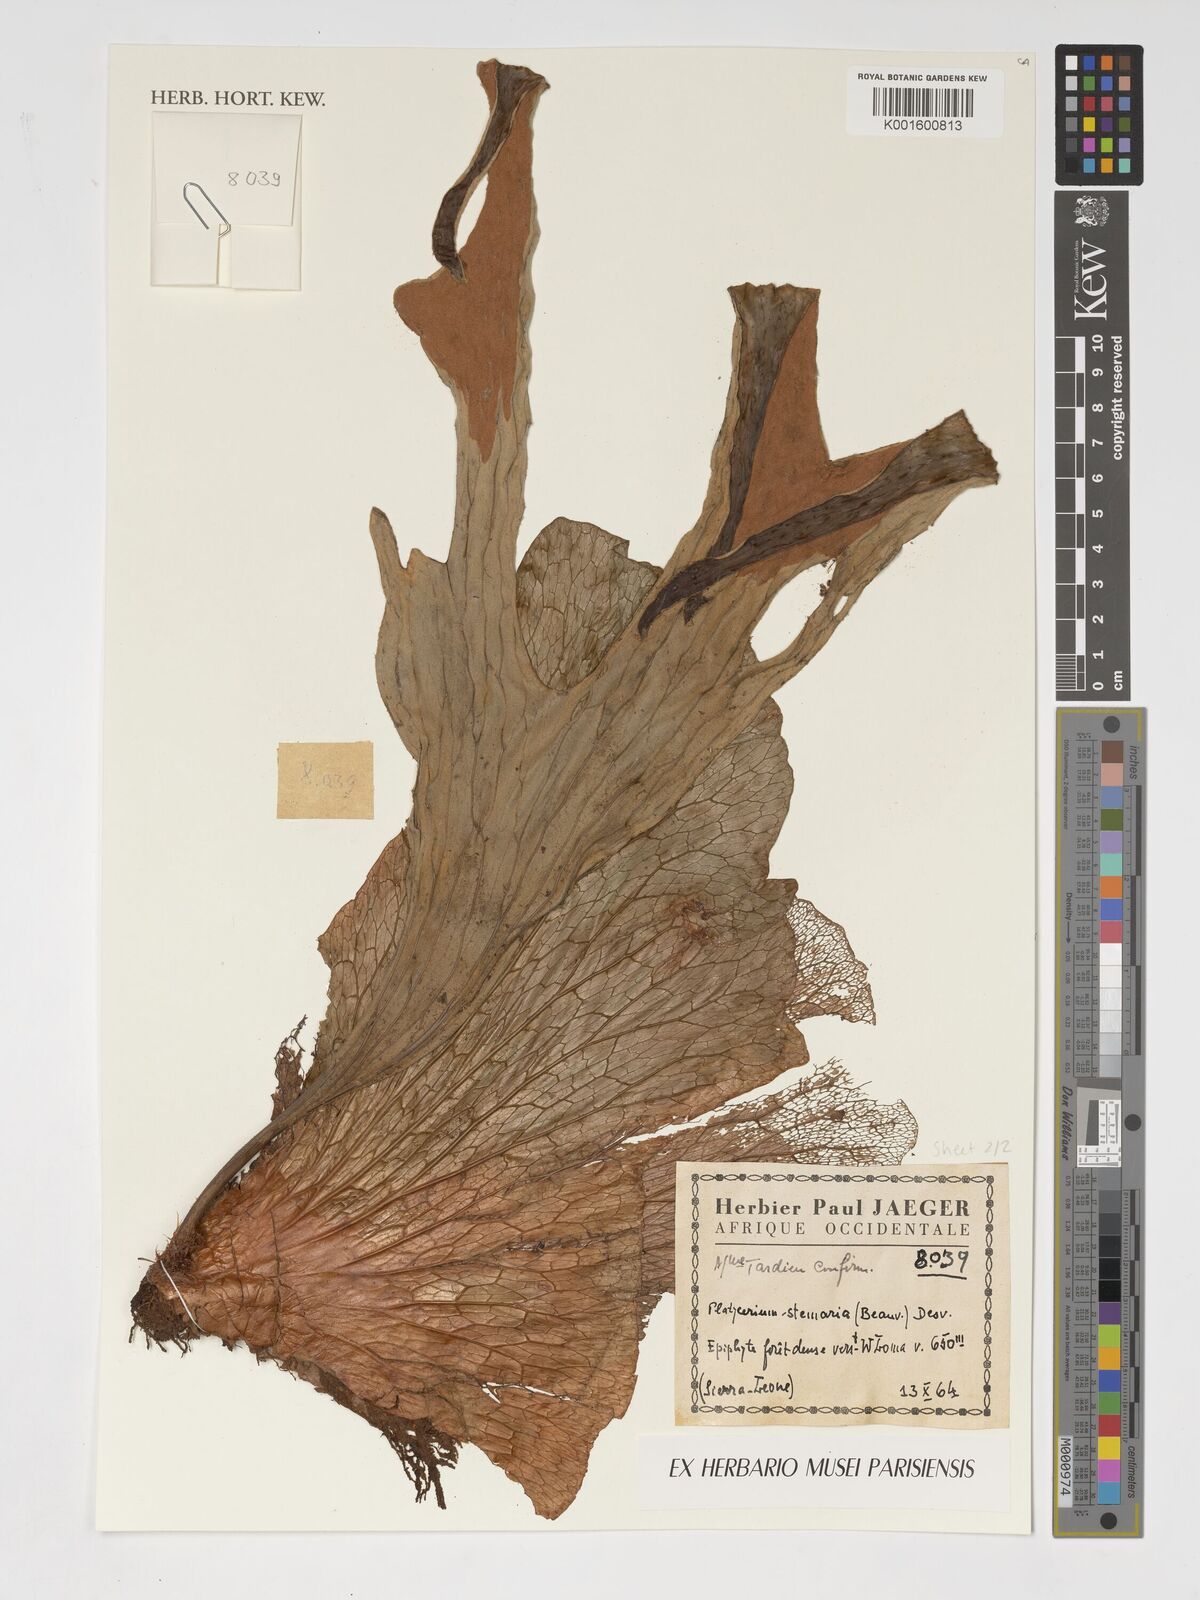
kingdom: Plantae
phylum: Tracheophyta
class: Polypodiopsida
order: Polypodiales
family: Polypodiaceae
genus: Platycerium
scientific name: Platycerium stemaria
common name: Triangular staghorn fern
